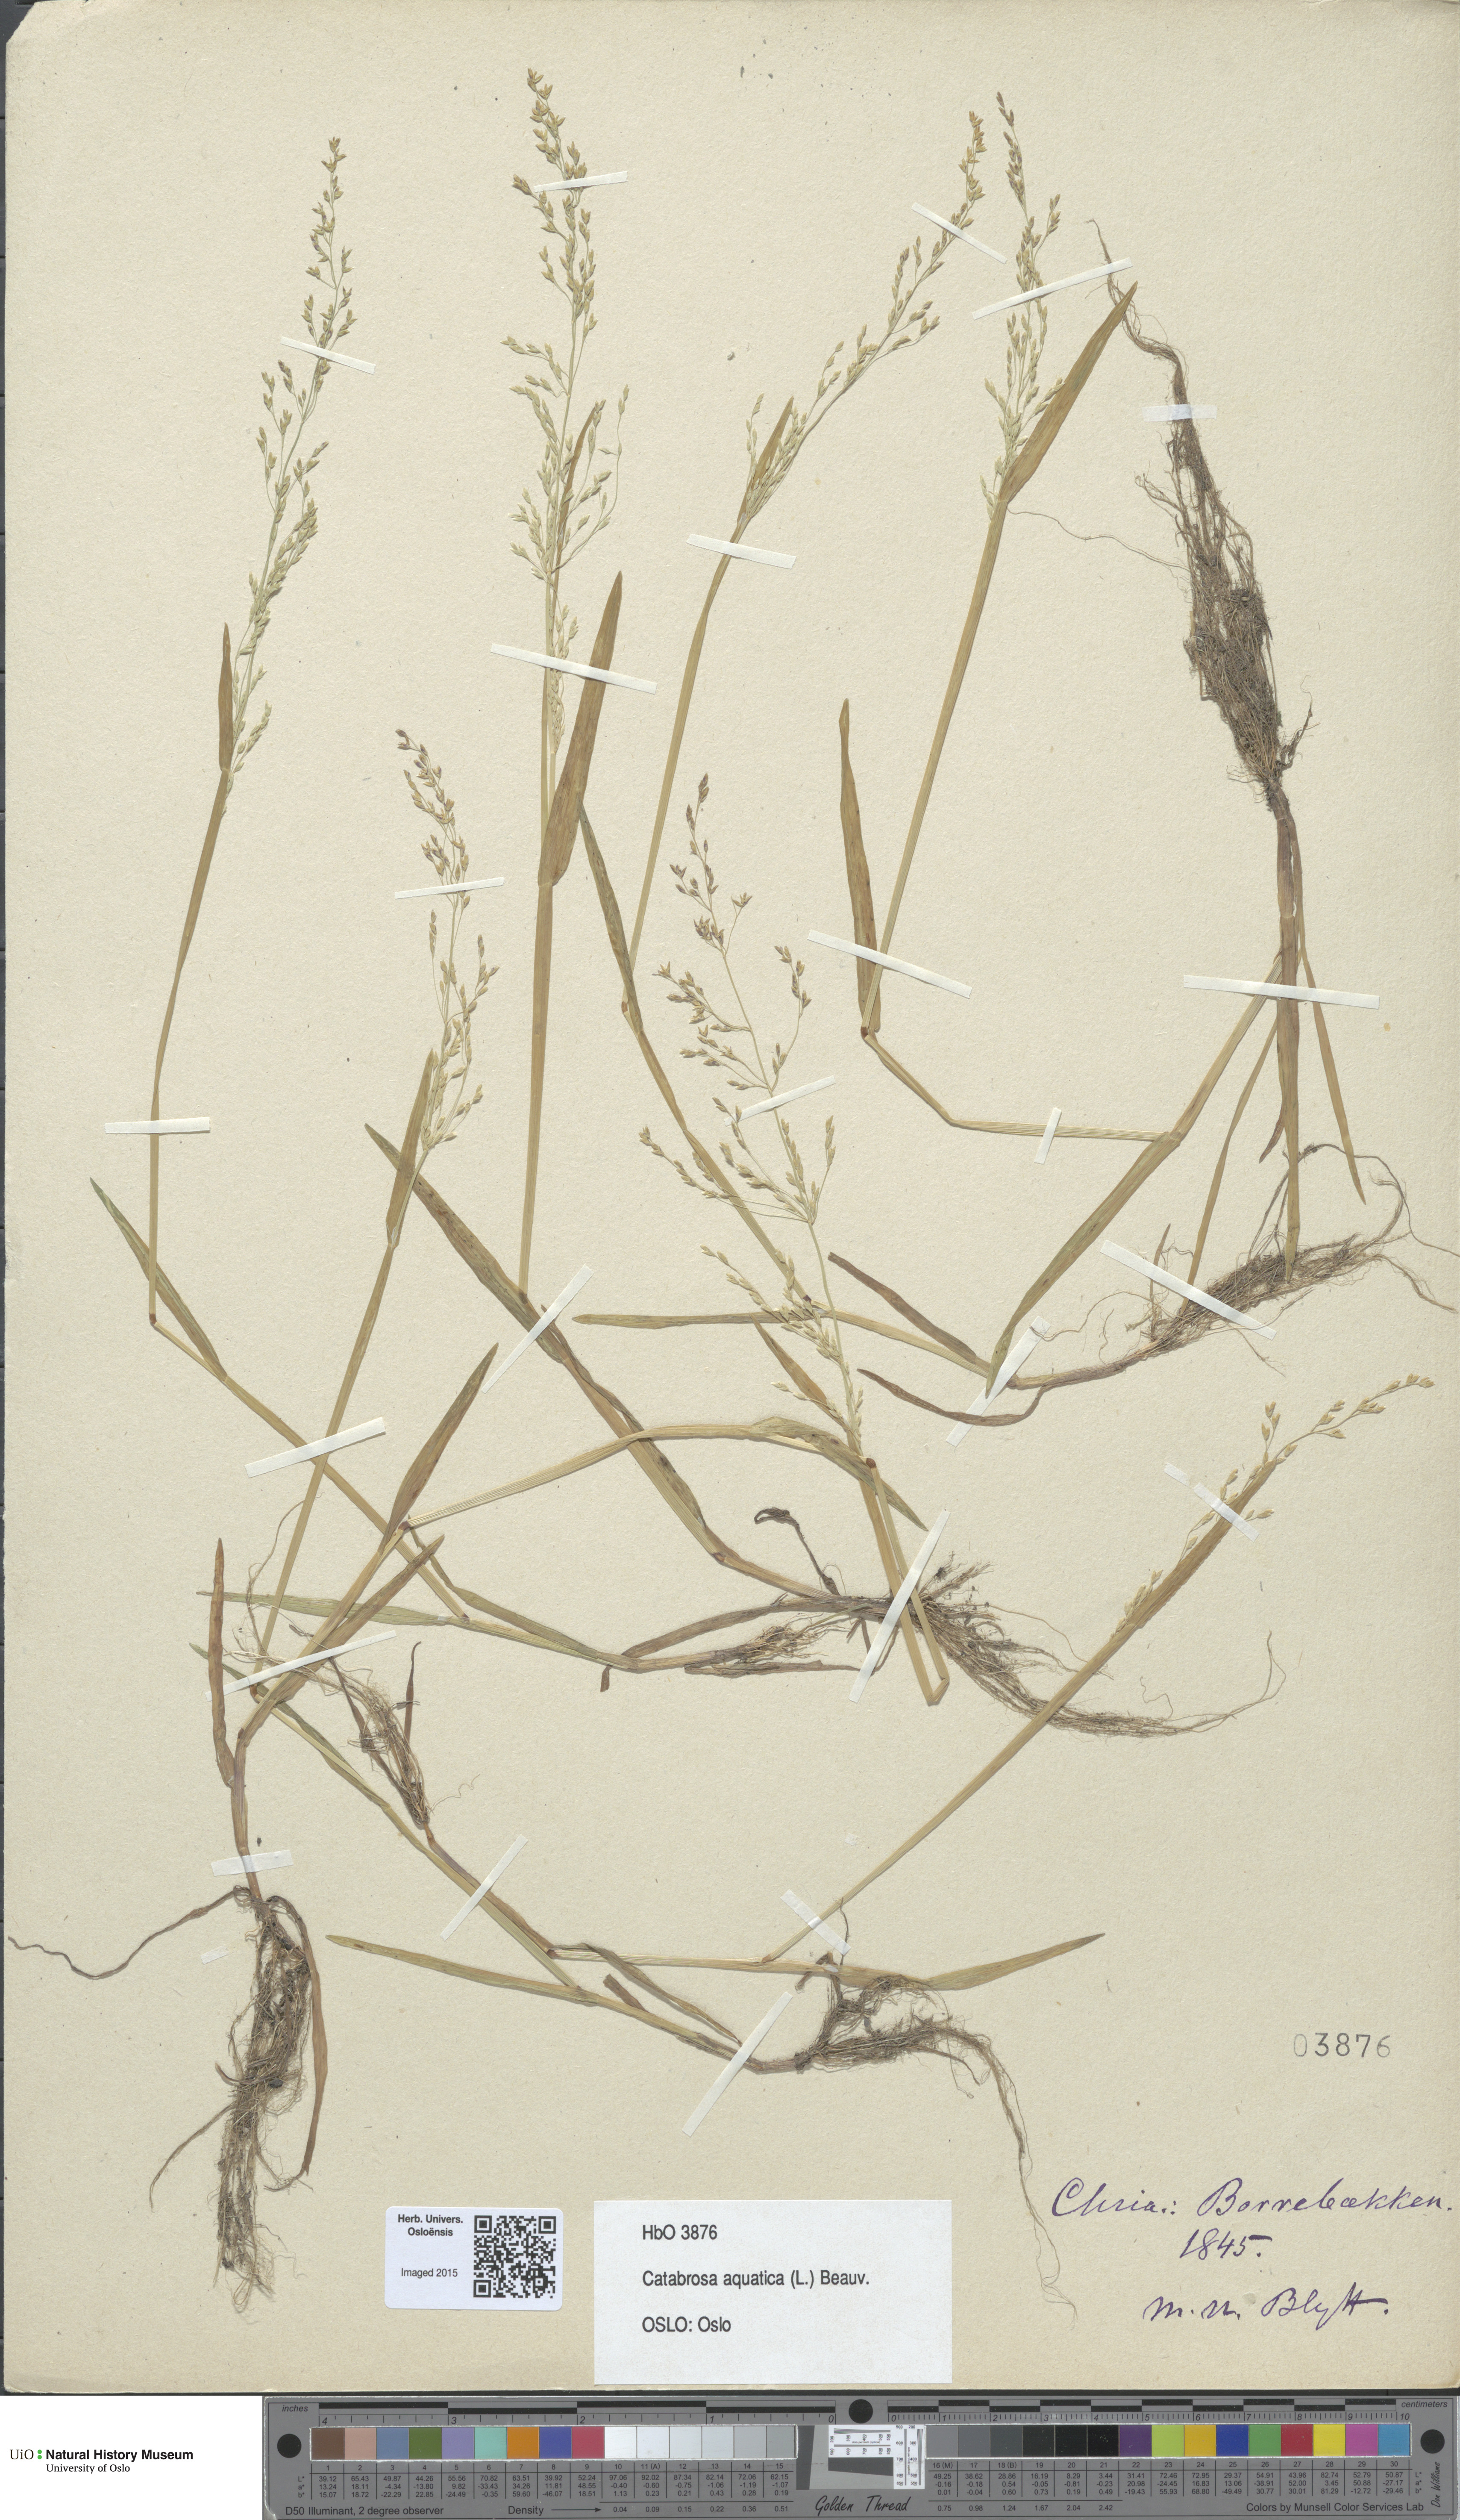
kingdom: Plantae
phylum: Tracheophyta
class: Liliopsida
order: Poales
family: Poaceae
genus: Catabrosa
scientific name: Catabrosa aquatica
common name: Whorl-grass
